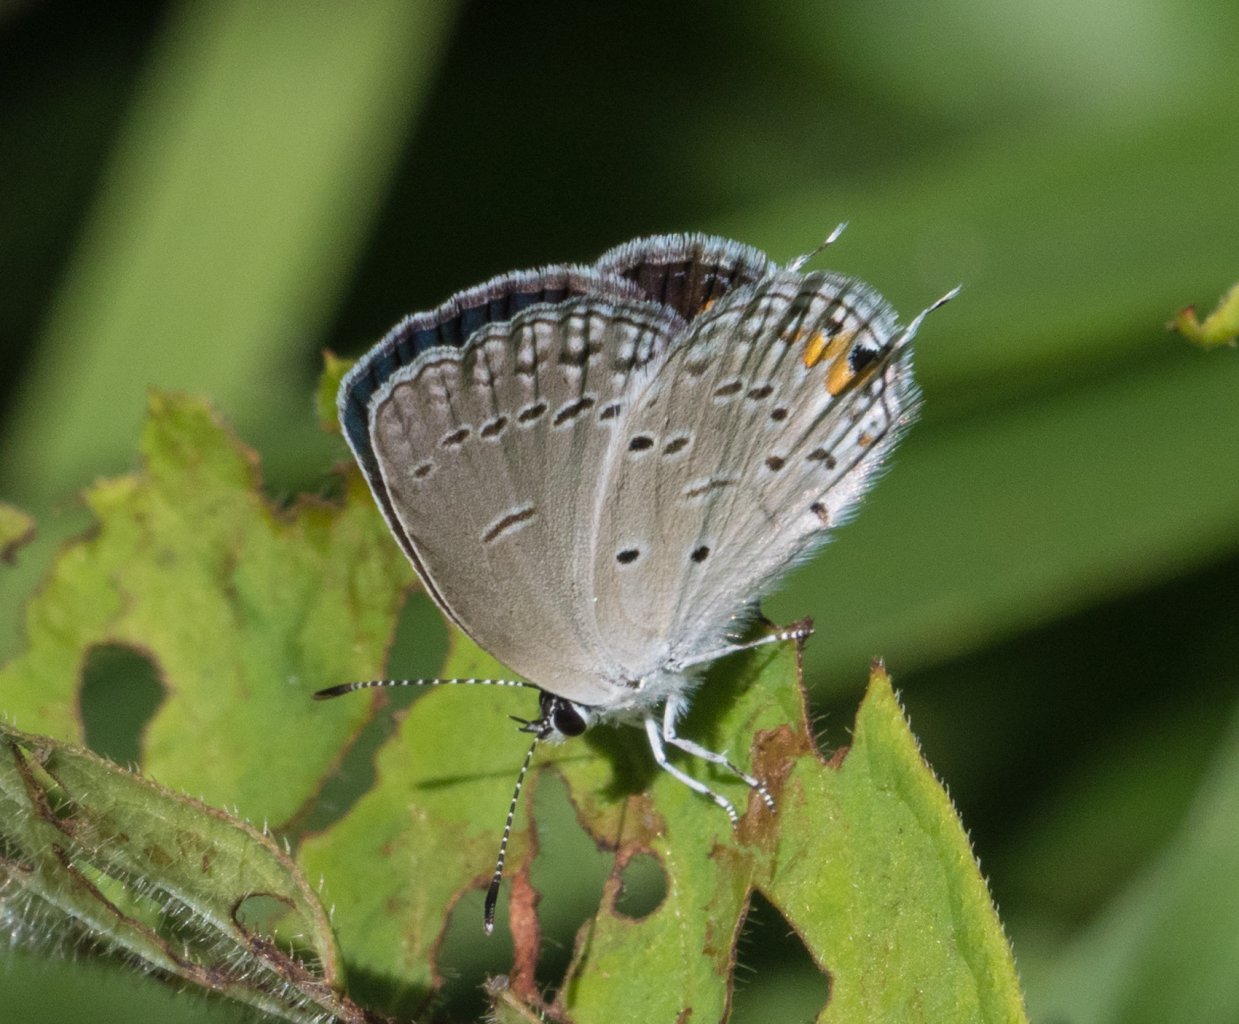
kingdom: Animalia
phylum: Arthropoda
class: Insecta
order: Lepidoptera
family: Lycaenidae
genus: Elkalyce
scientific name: Elkalyce comyntas
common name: Eastern Tailed-Blue
